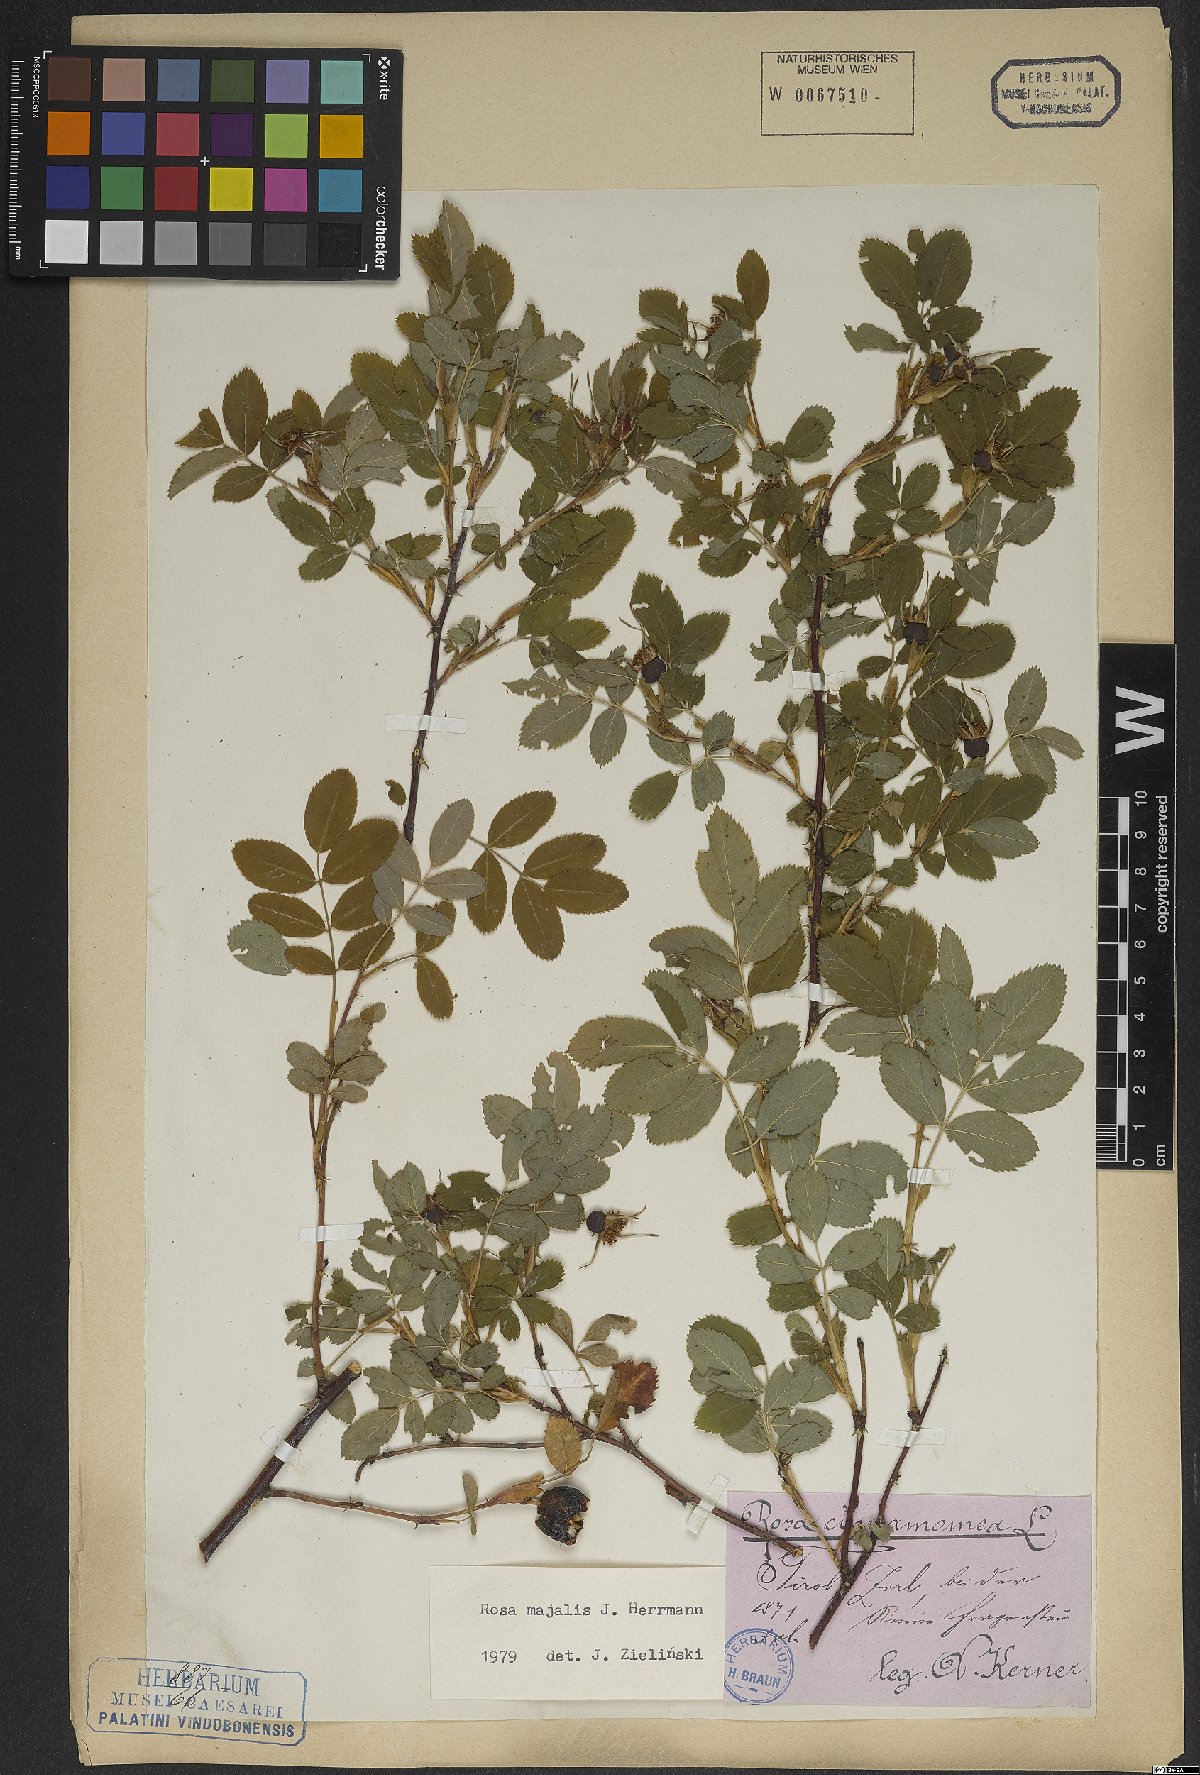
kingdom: Plantae
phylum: Tracheophyta
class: Magnoliopsida
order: Rosales
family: Rosaceae
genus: Rosa
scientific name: Rosa majalis
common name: Cinnamon rose
